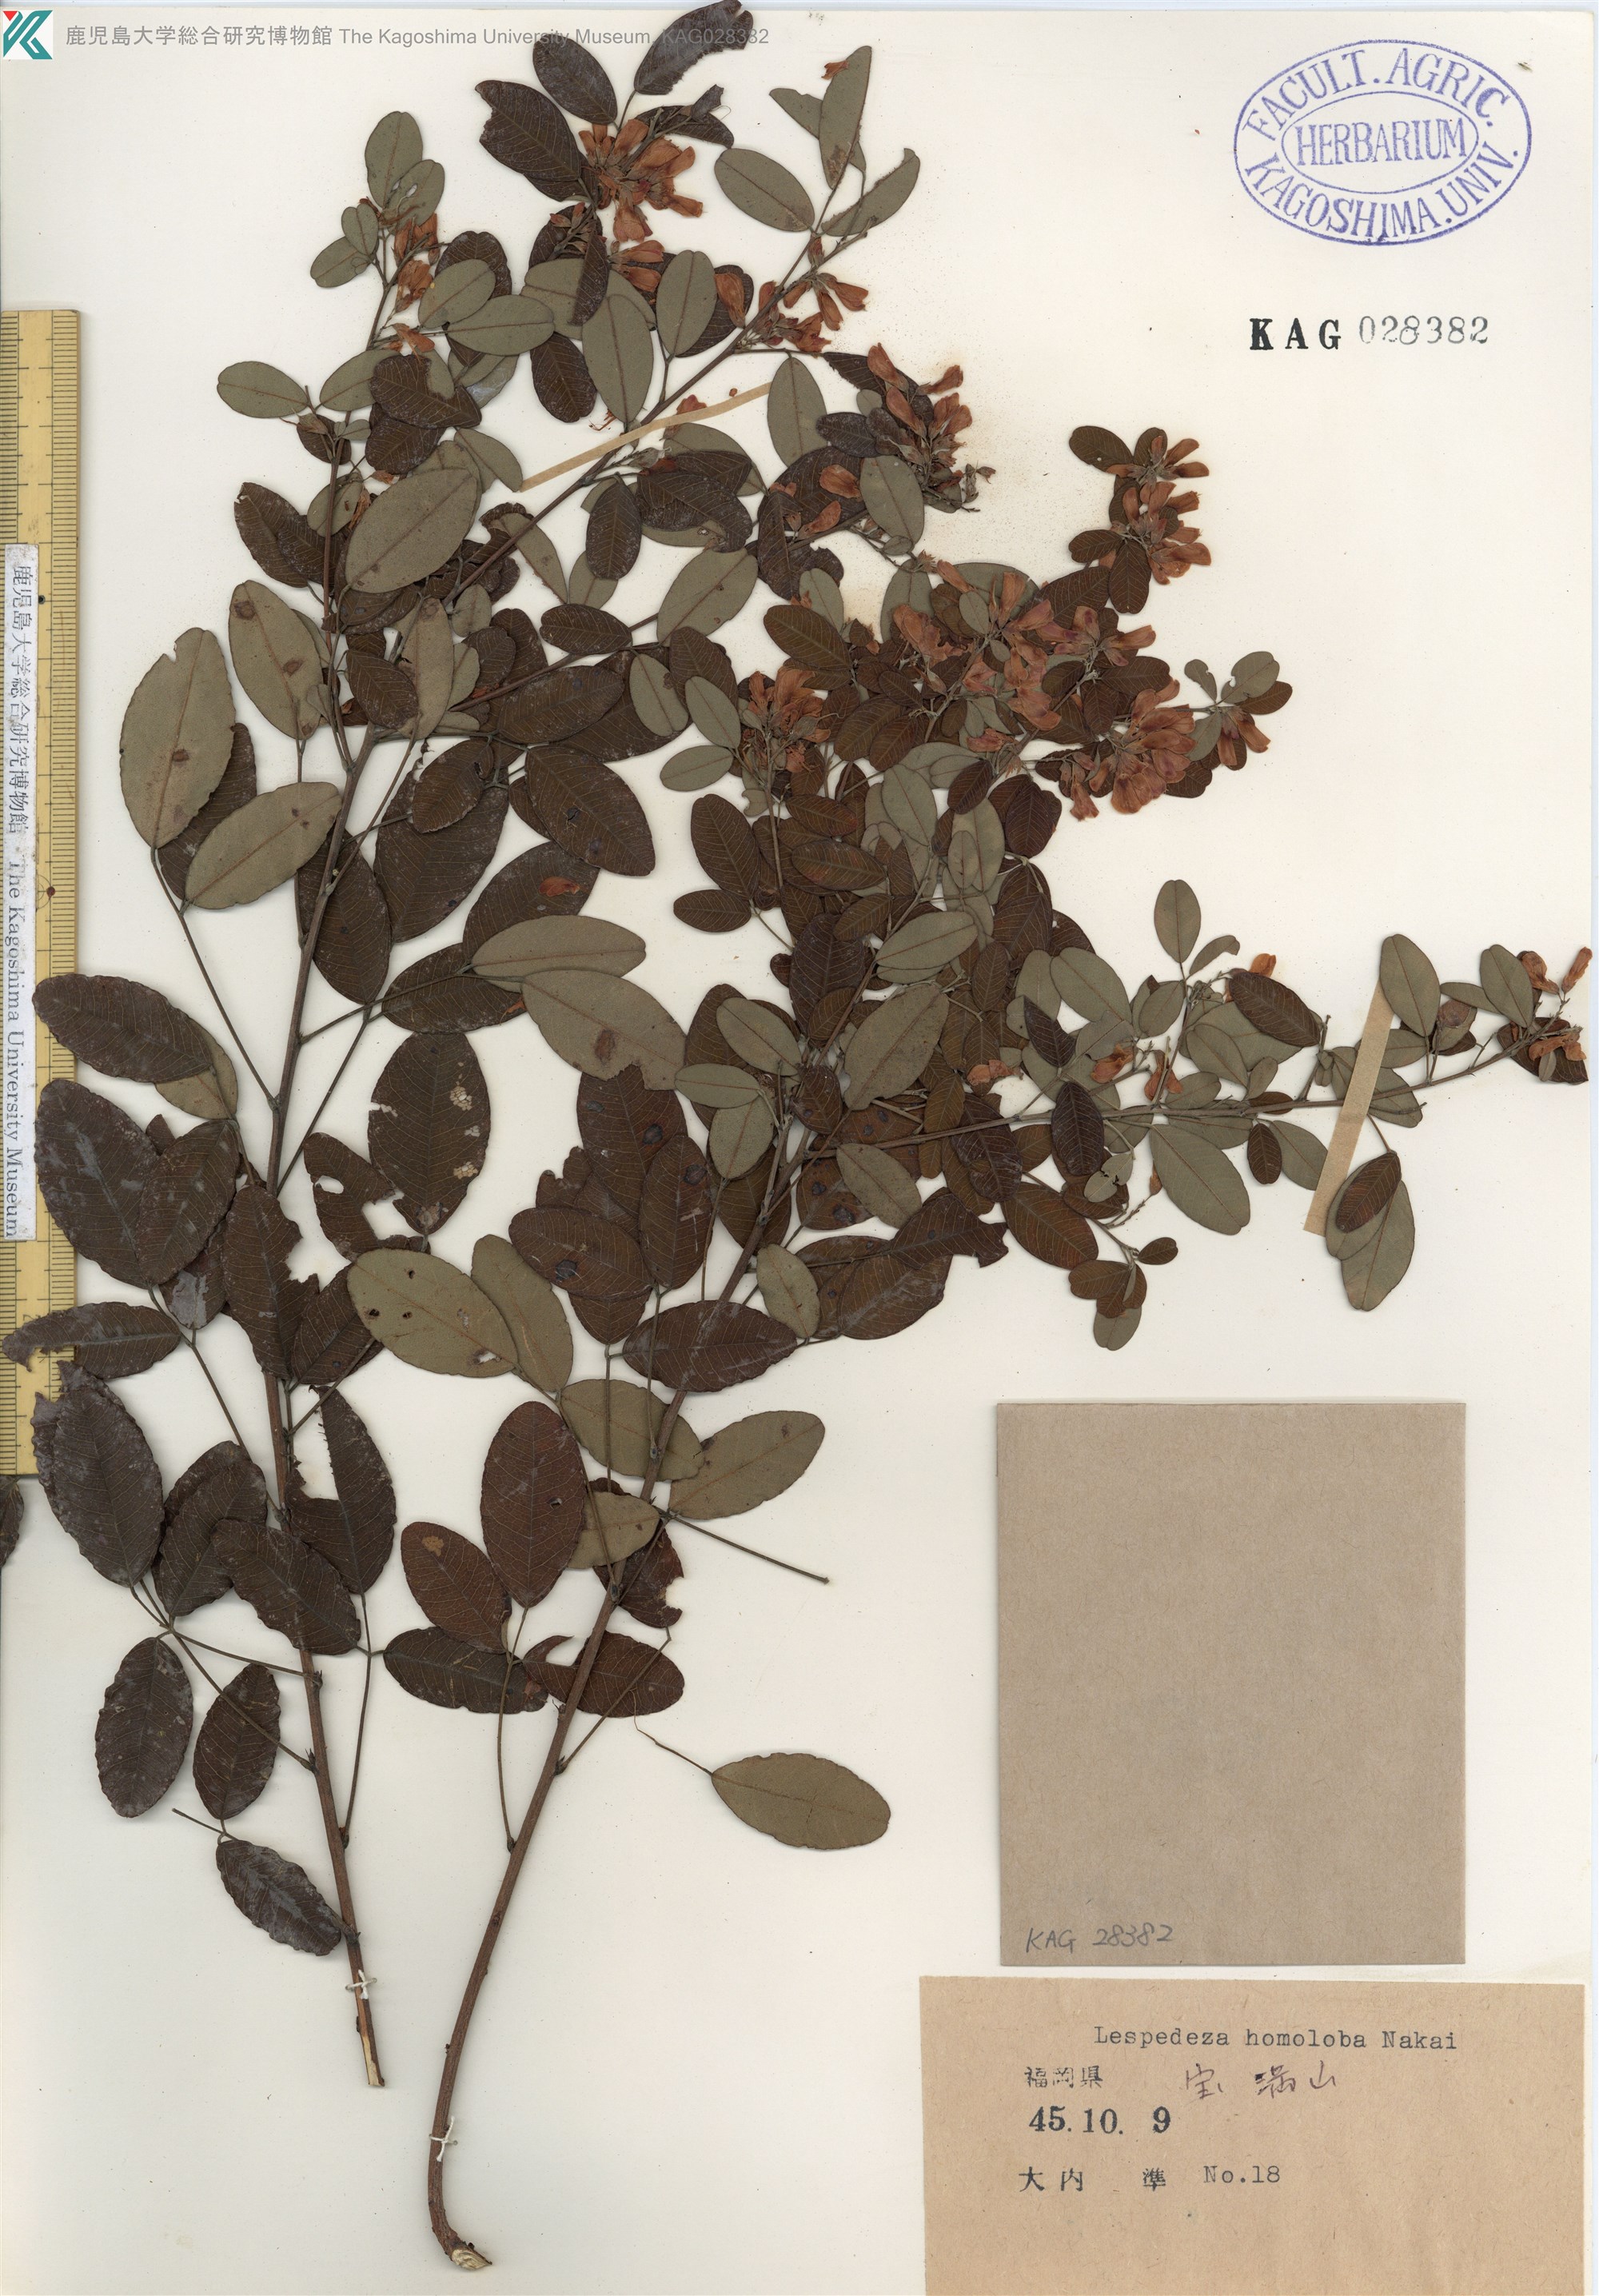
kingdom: Plantae
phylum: Tracheophyta
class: Magnoliopsida
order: Fabales
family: Fabaceae
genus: Lespedeza
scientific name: Lespedeza homoloba
